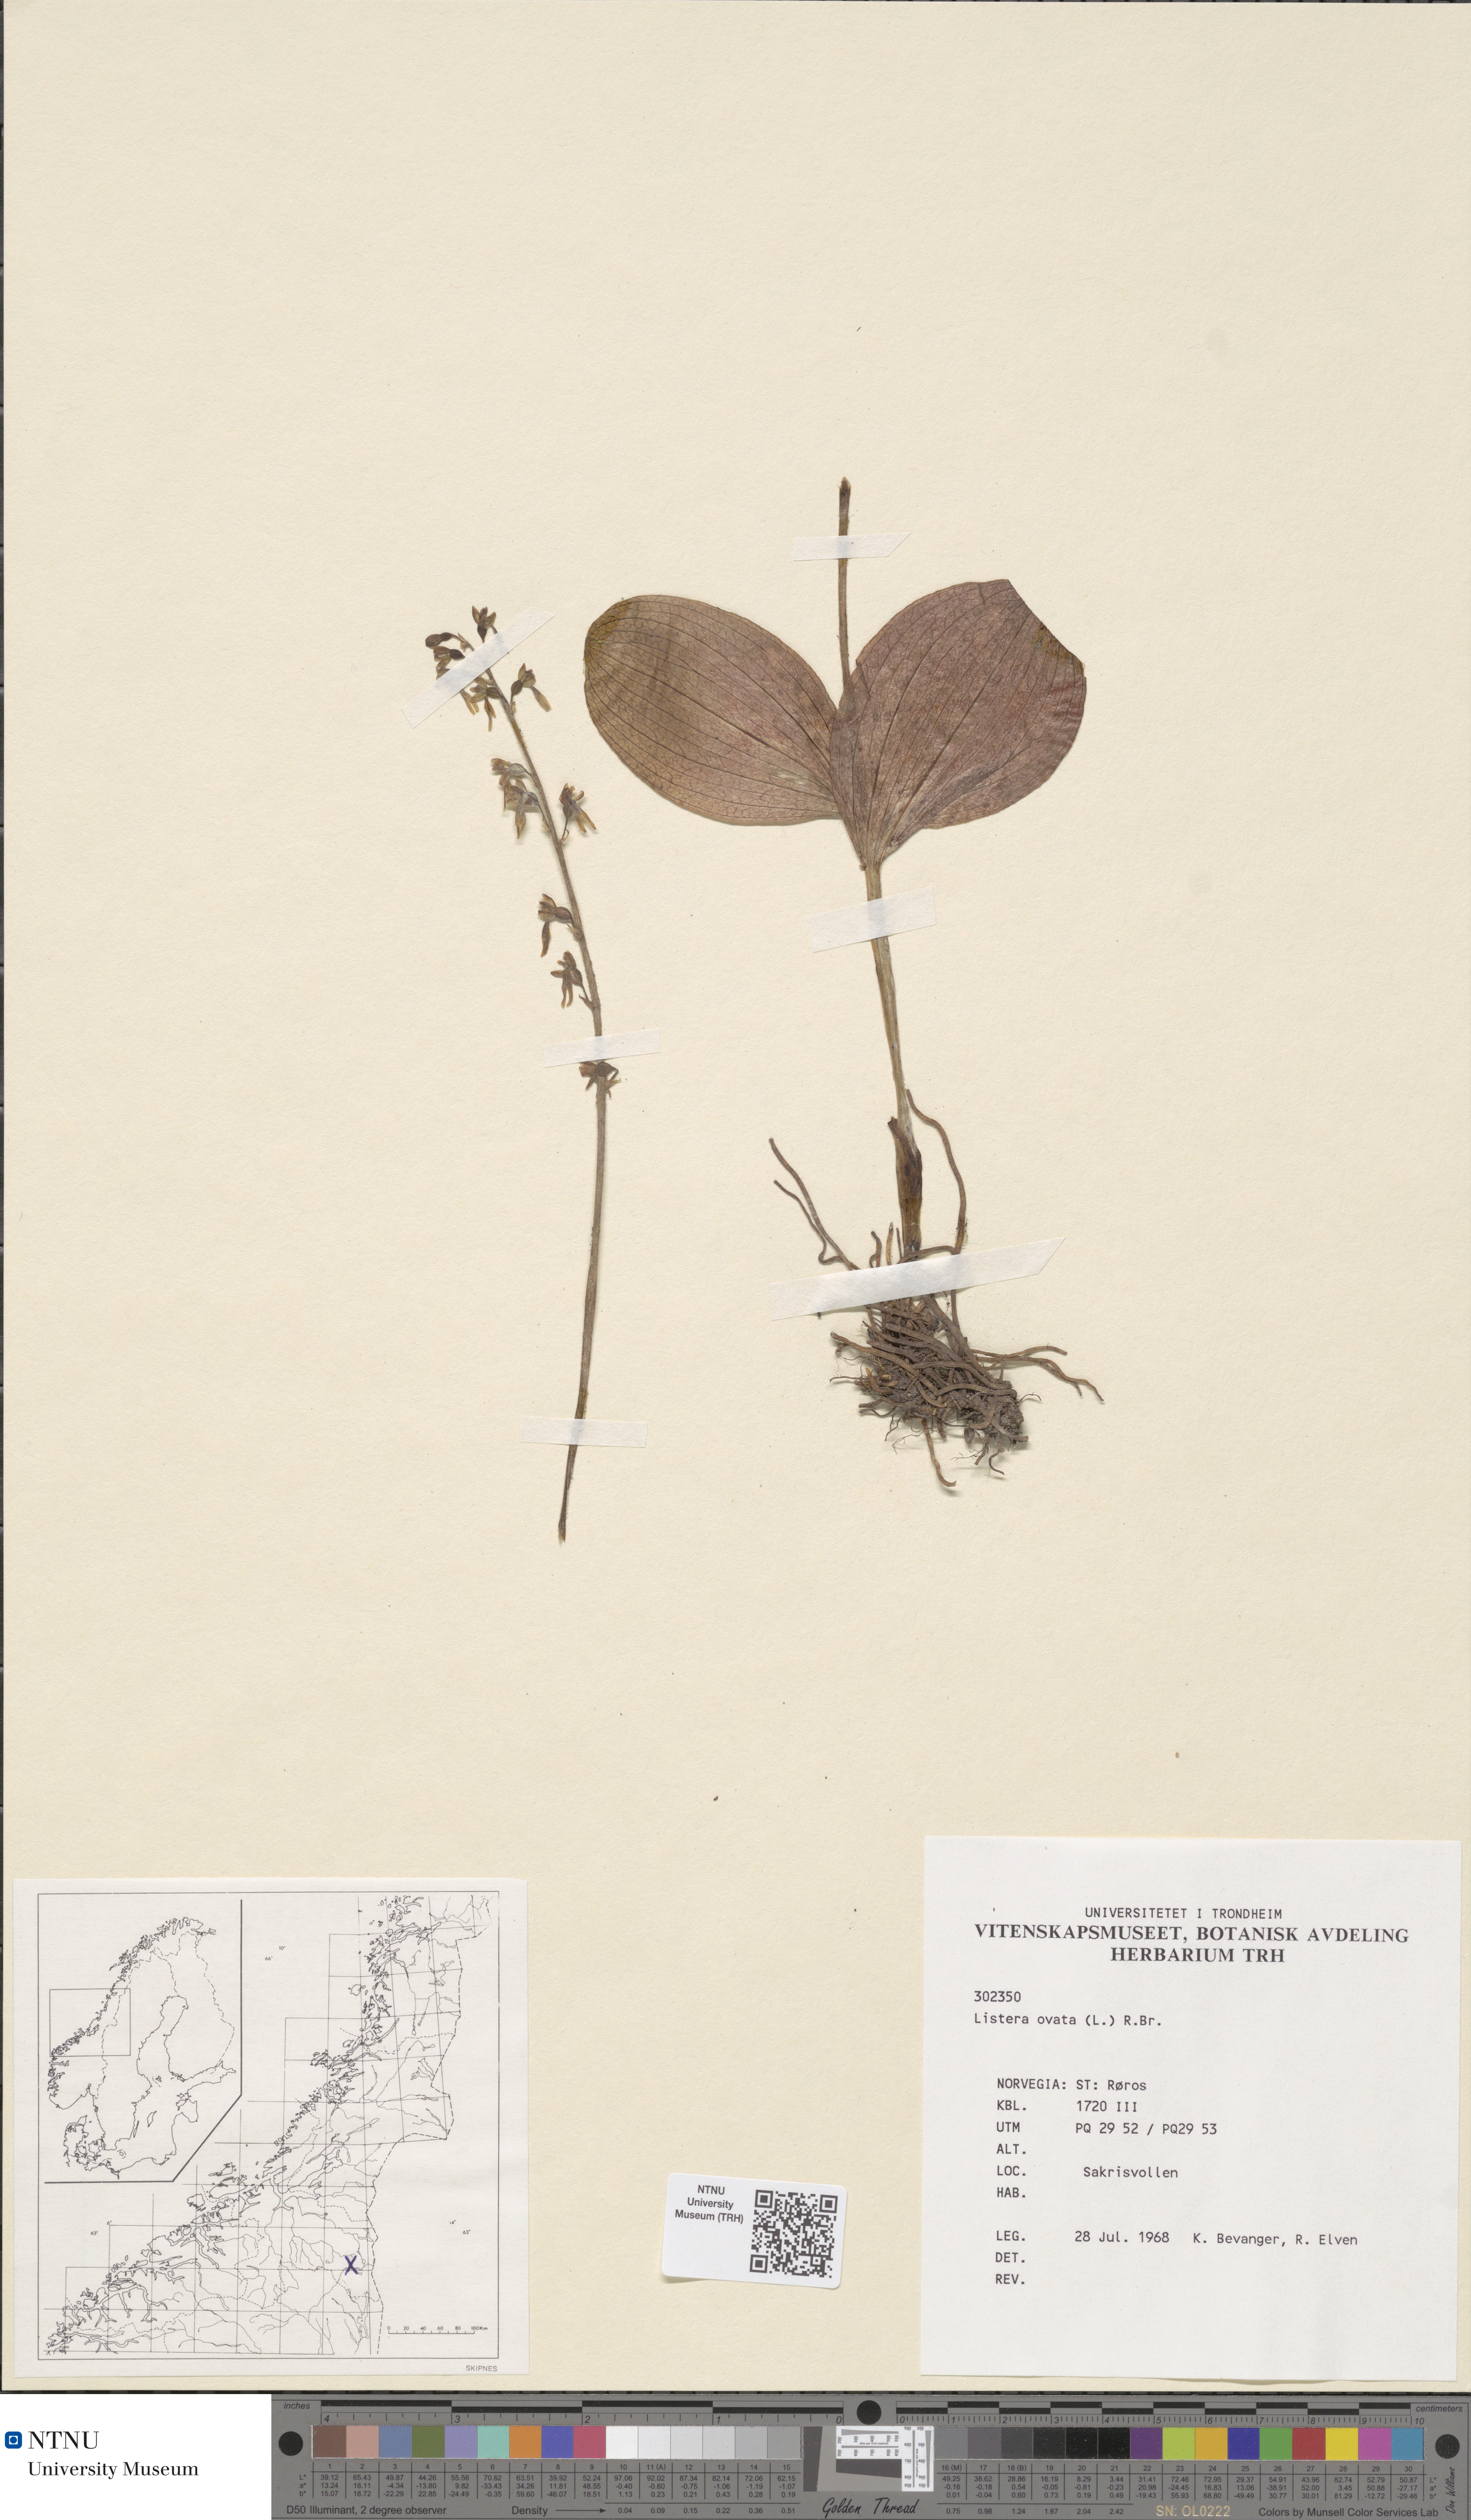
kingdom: Plantae
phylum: Tracheophyta
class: Liliopsida
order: Asparagales
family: Orchidaceae
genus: Neottia
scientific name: Neottia ovata
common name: Common twayblade
